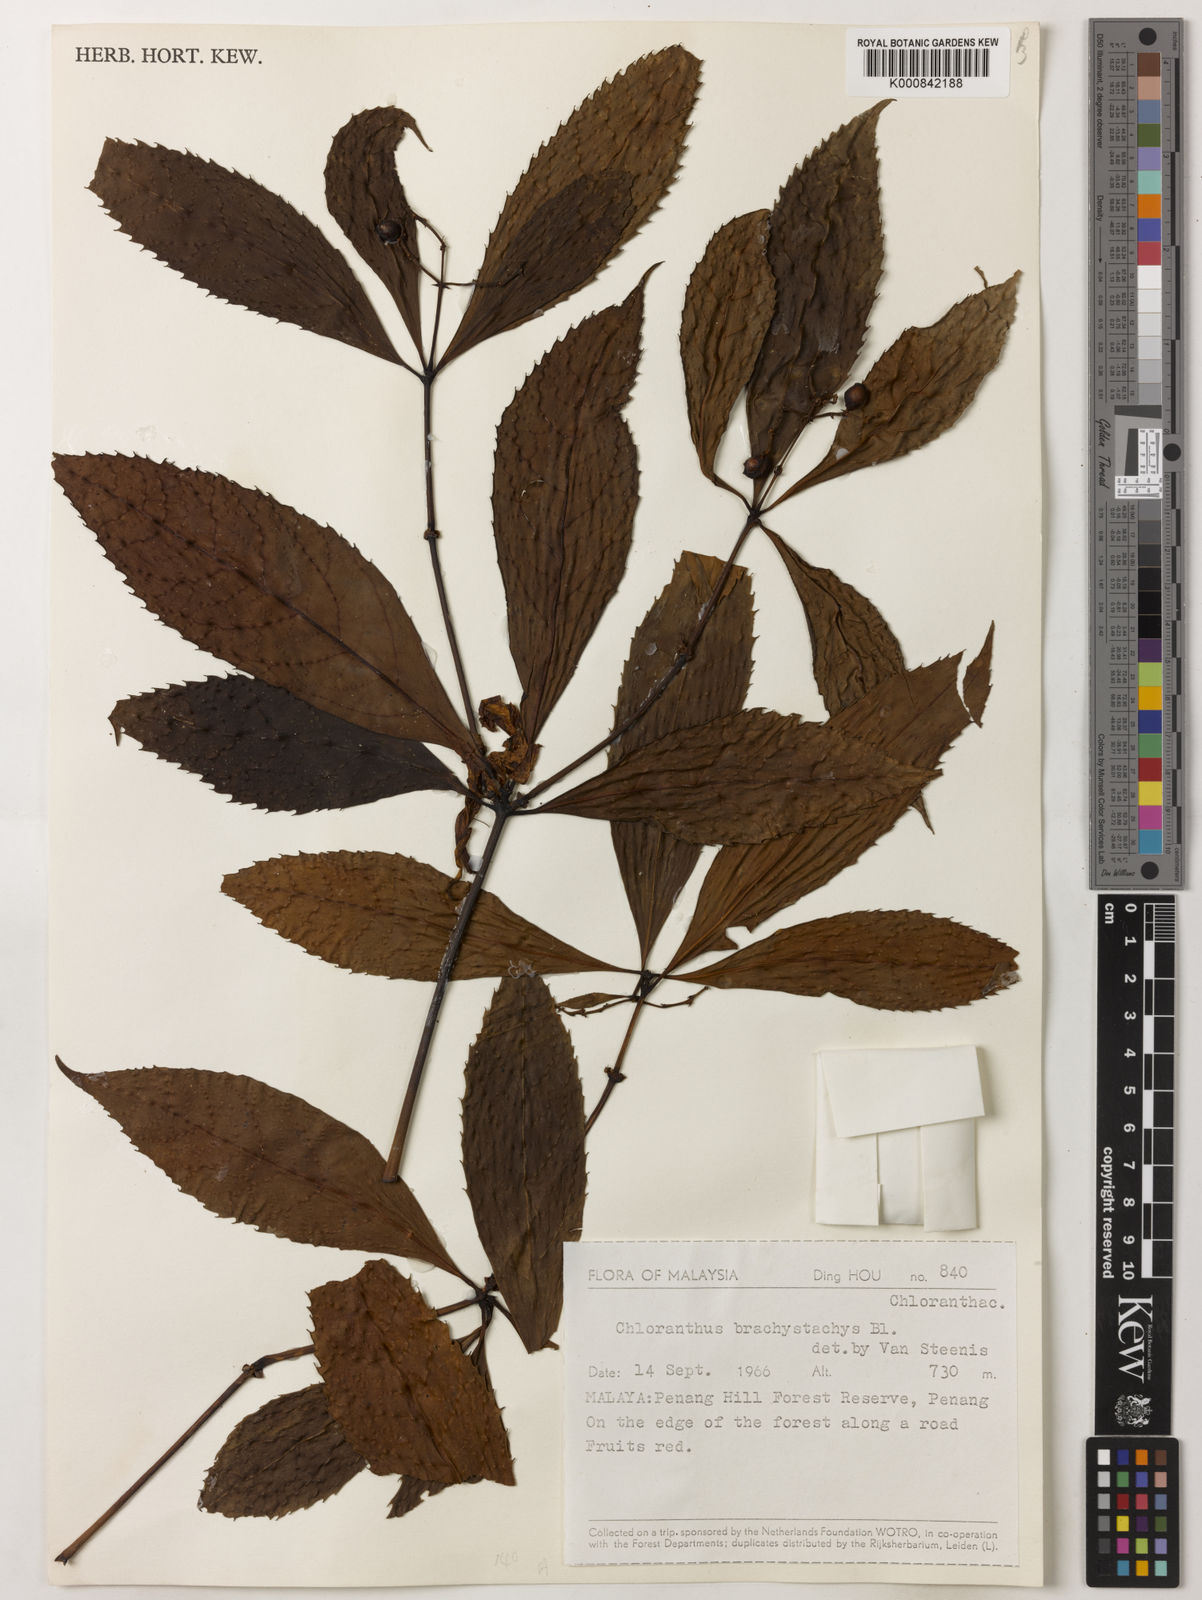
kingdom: Plantae
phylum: Tracheophyta
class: Magnoliopsida
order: Chloranthales
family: Chloranthaceae
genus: Sarcandra
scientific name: Sarcandra glabra
